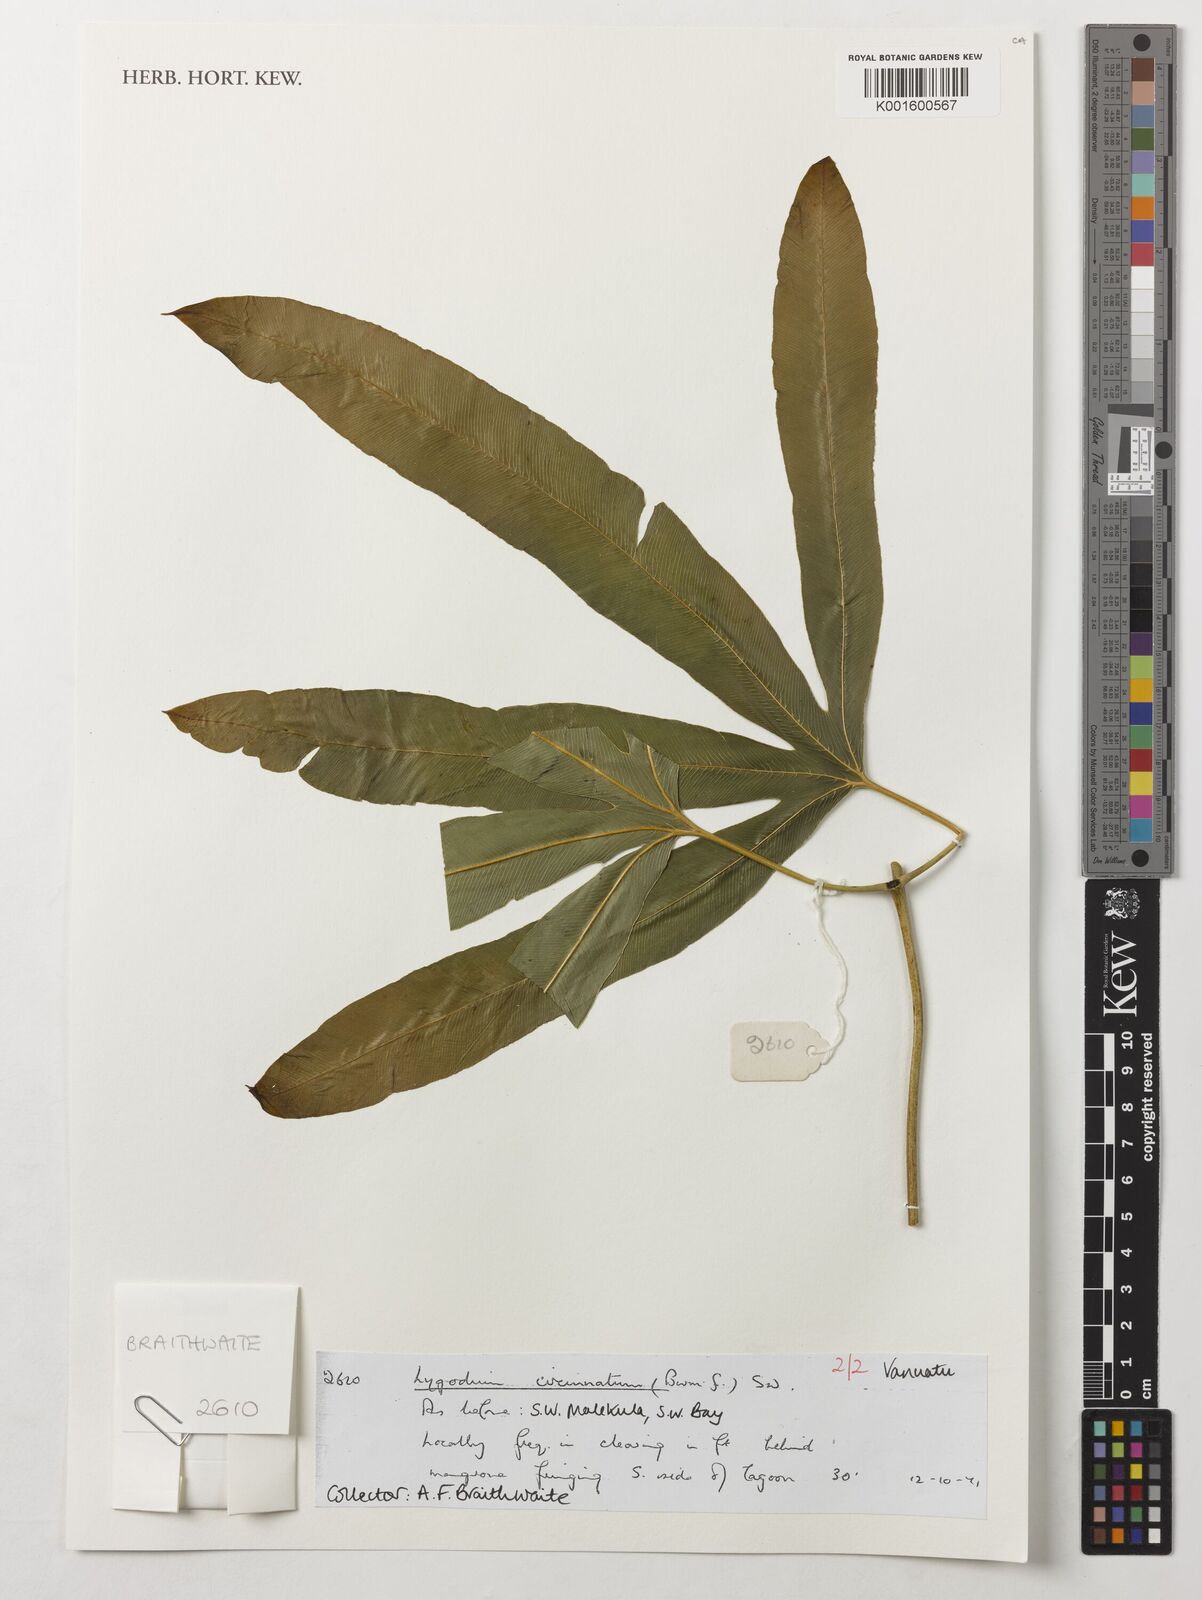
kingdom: Plantae
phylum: Tracheophyta
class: Polypodiopsida
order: Schizaeales
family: Lygodiaceae
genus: Lygodium
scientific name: Lygodium circinnatum
